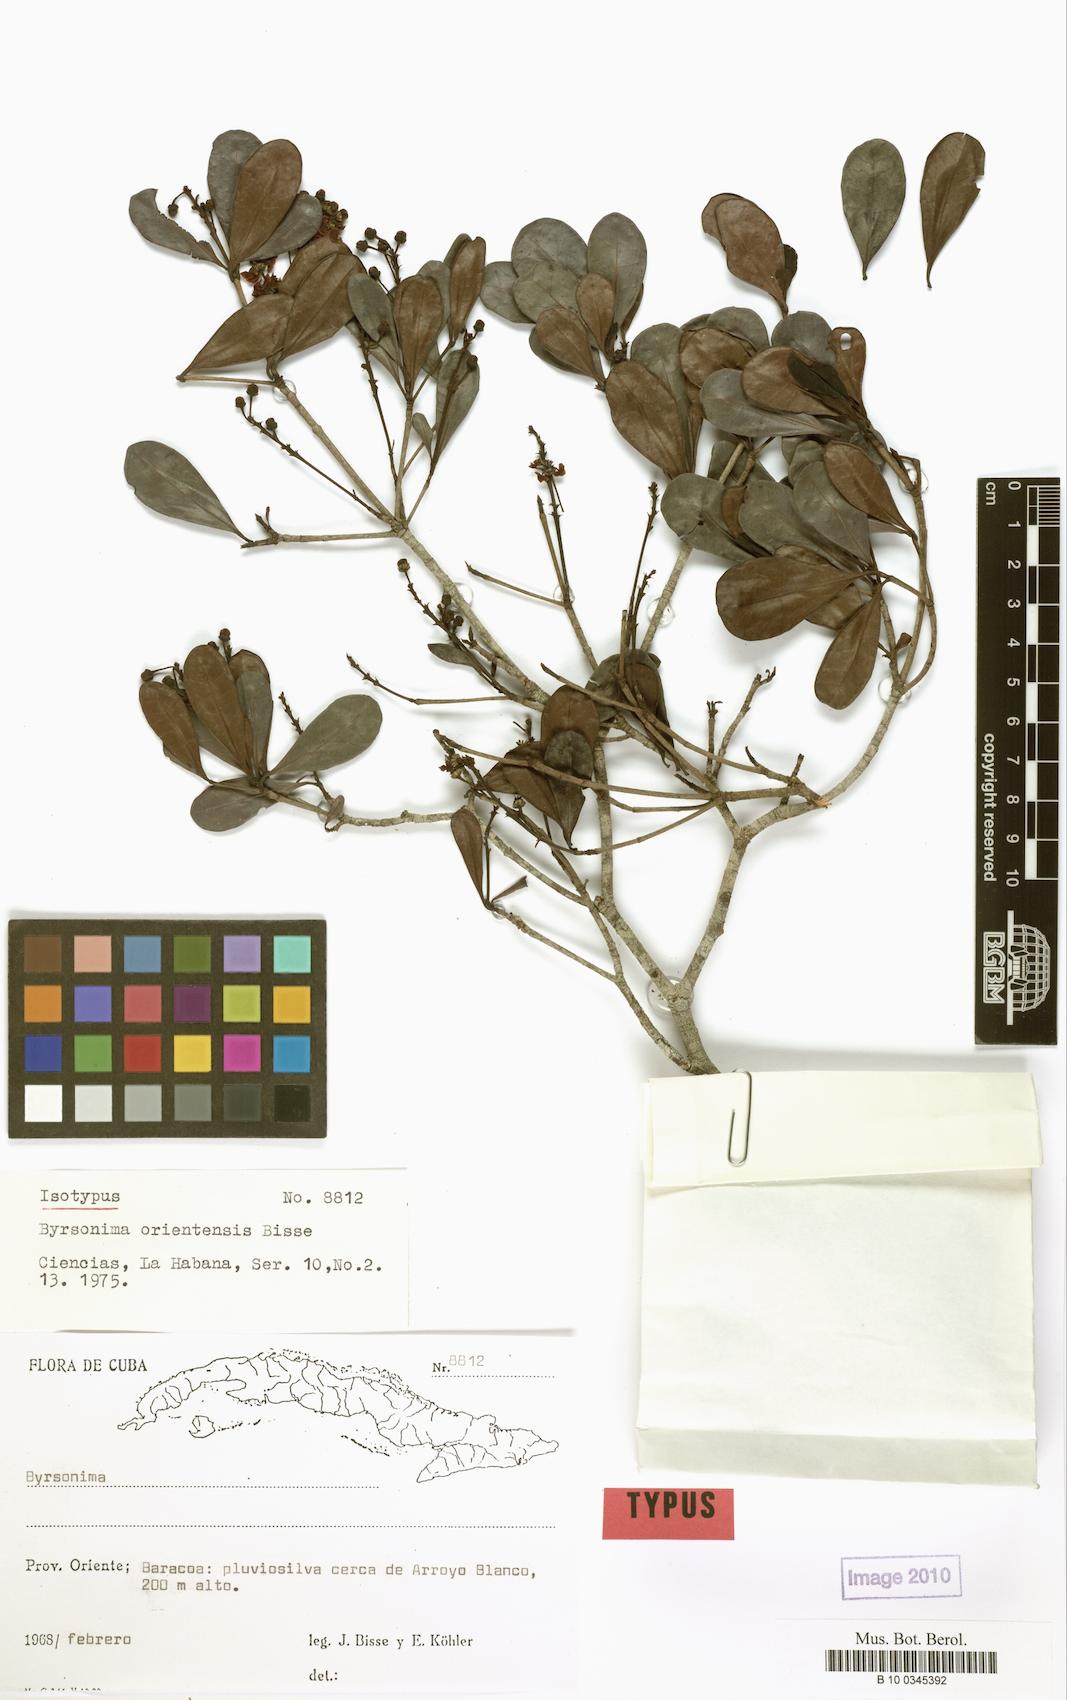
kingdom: Plantae
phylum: Tracheophyta
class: Magnoliopsida
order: Malpighiales
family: Malpighiaceae
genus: Byrsonima
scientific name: Byrsonima orientensis
